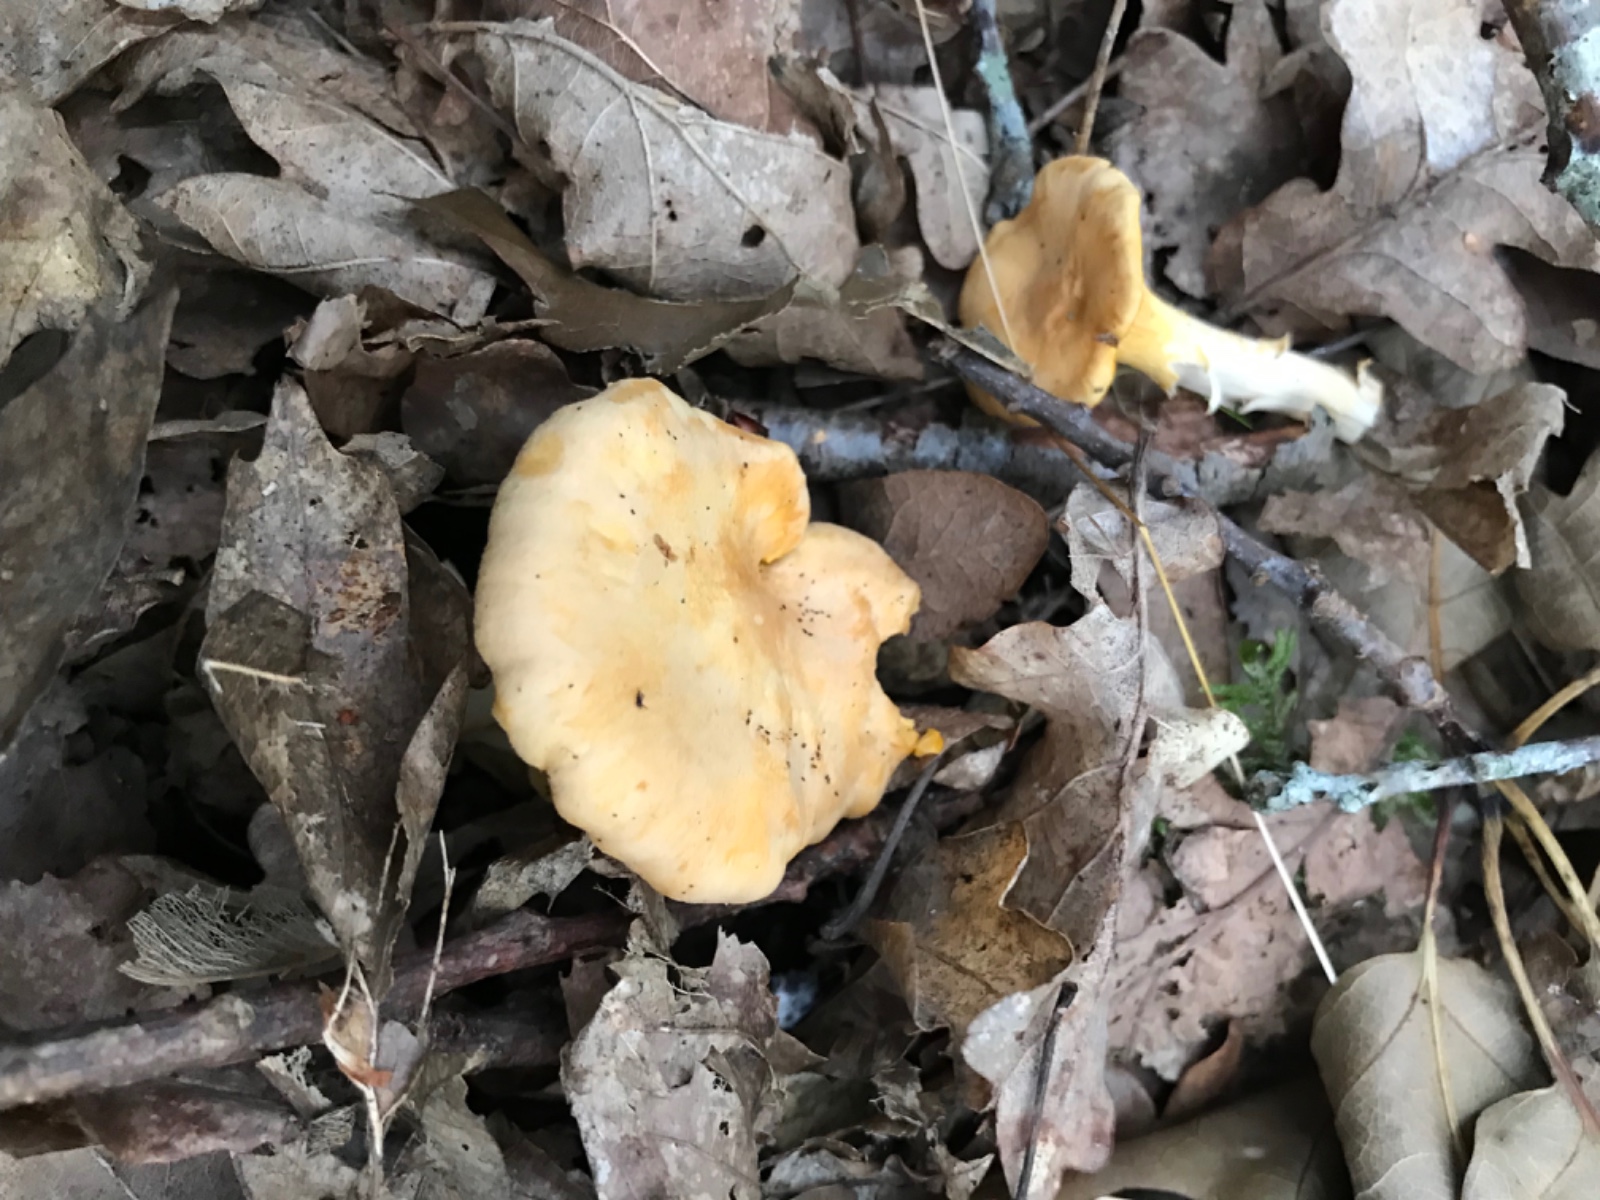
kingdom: Fungi
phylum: Basidiomycota
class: Agaricomycetes
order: Cantharellales
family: Hydnaceae
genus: Cantharellus
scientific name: Cantharellus cibarius
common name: almindelig kantarel
